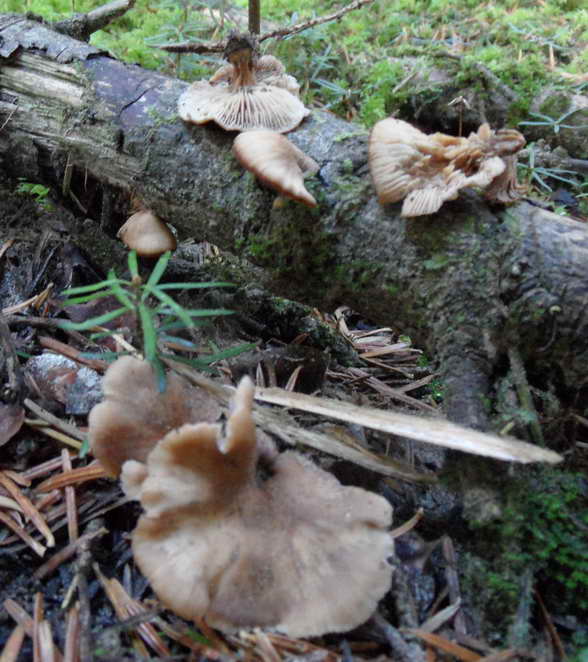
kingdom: Fungi
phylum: Basidiomycota
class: Agaricomycetes
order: Russulales
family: Auriscalpiaceae
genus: Lentinellus
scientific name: Lentinellus flabelliformis
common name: navle-savbladhat
